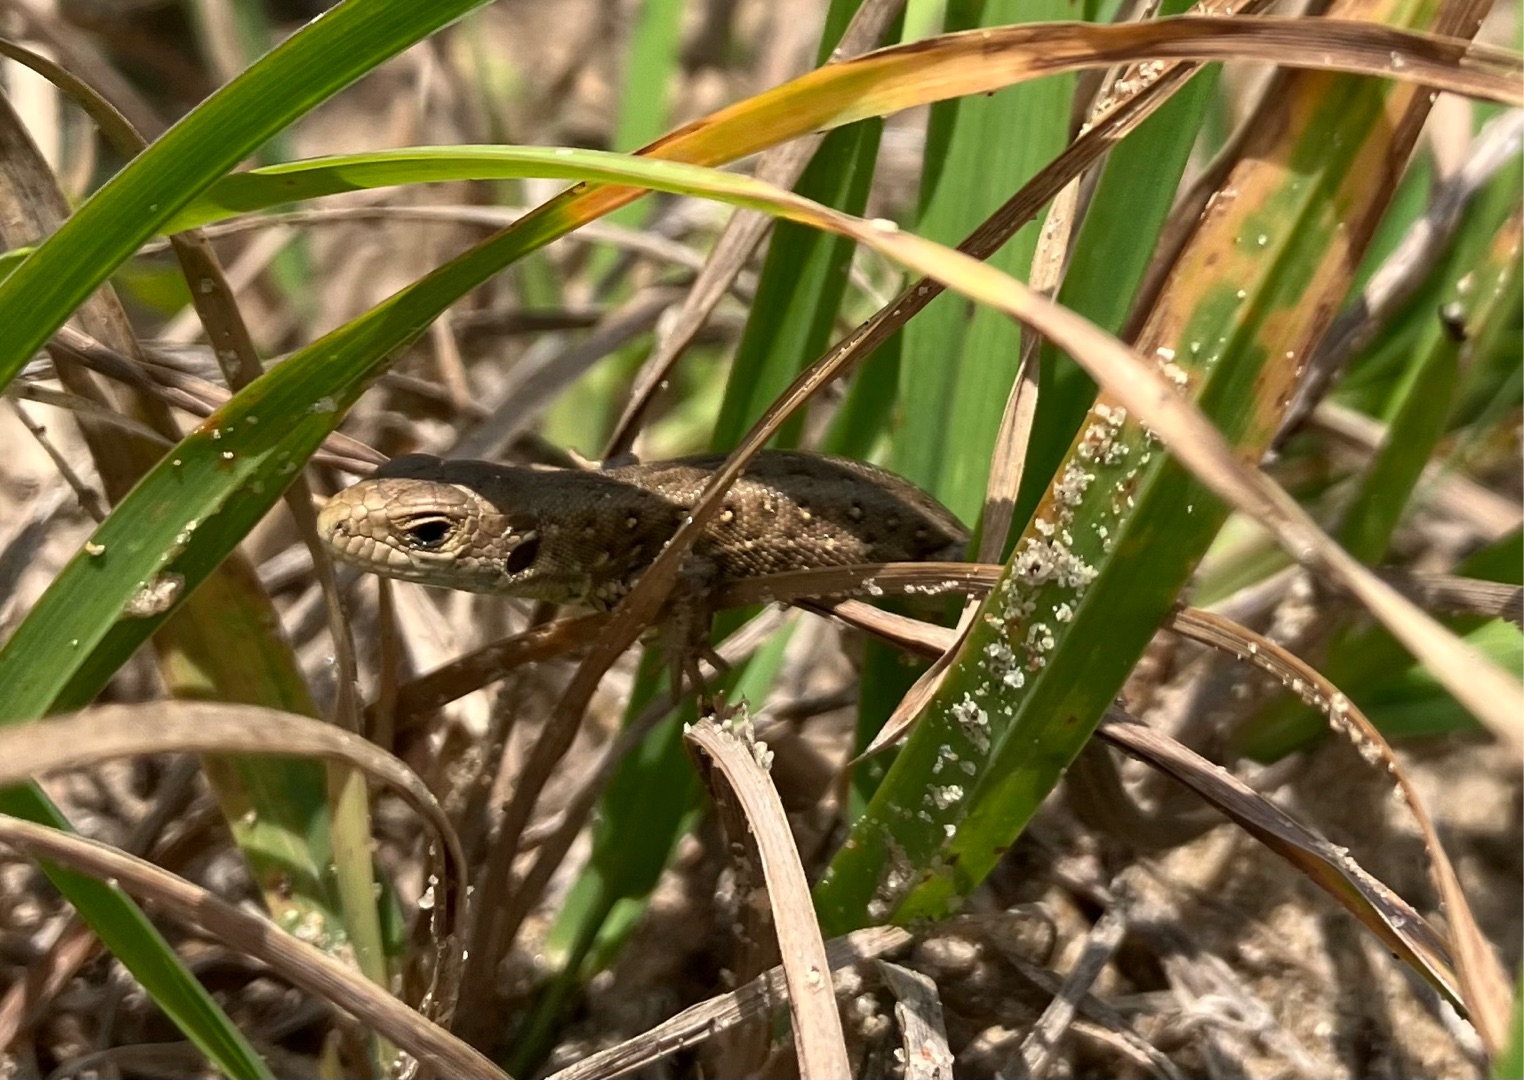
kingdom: Animalia
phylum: Chordata
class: Squamata
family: Lacertidae
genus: Lacerta
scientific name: Lacerta agilis
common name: Markfirben
